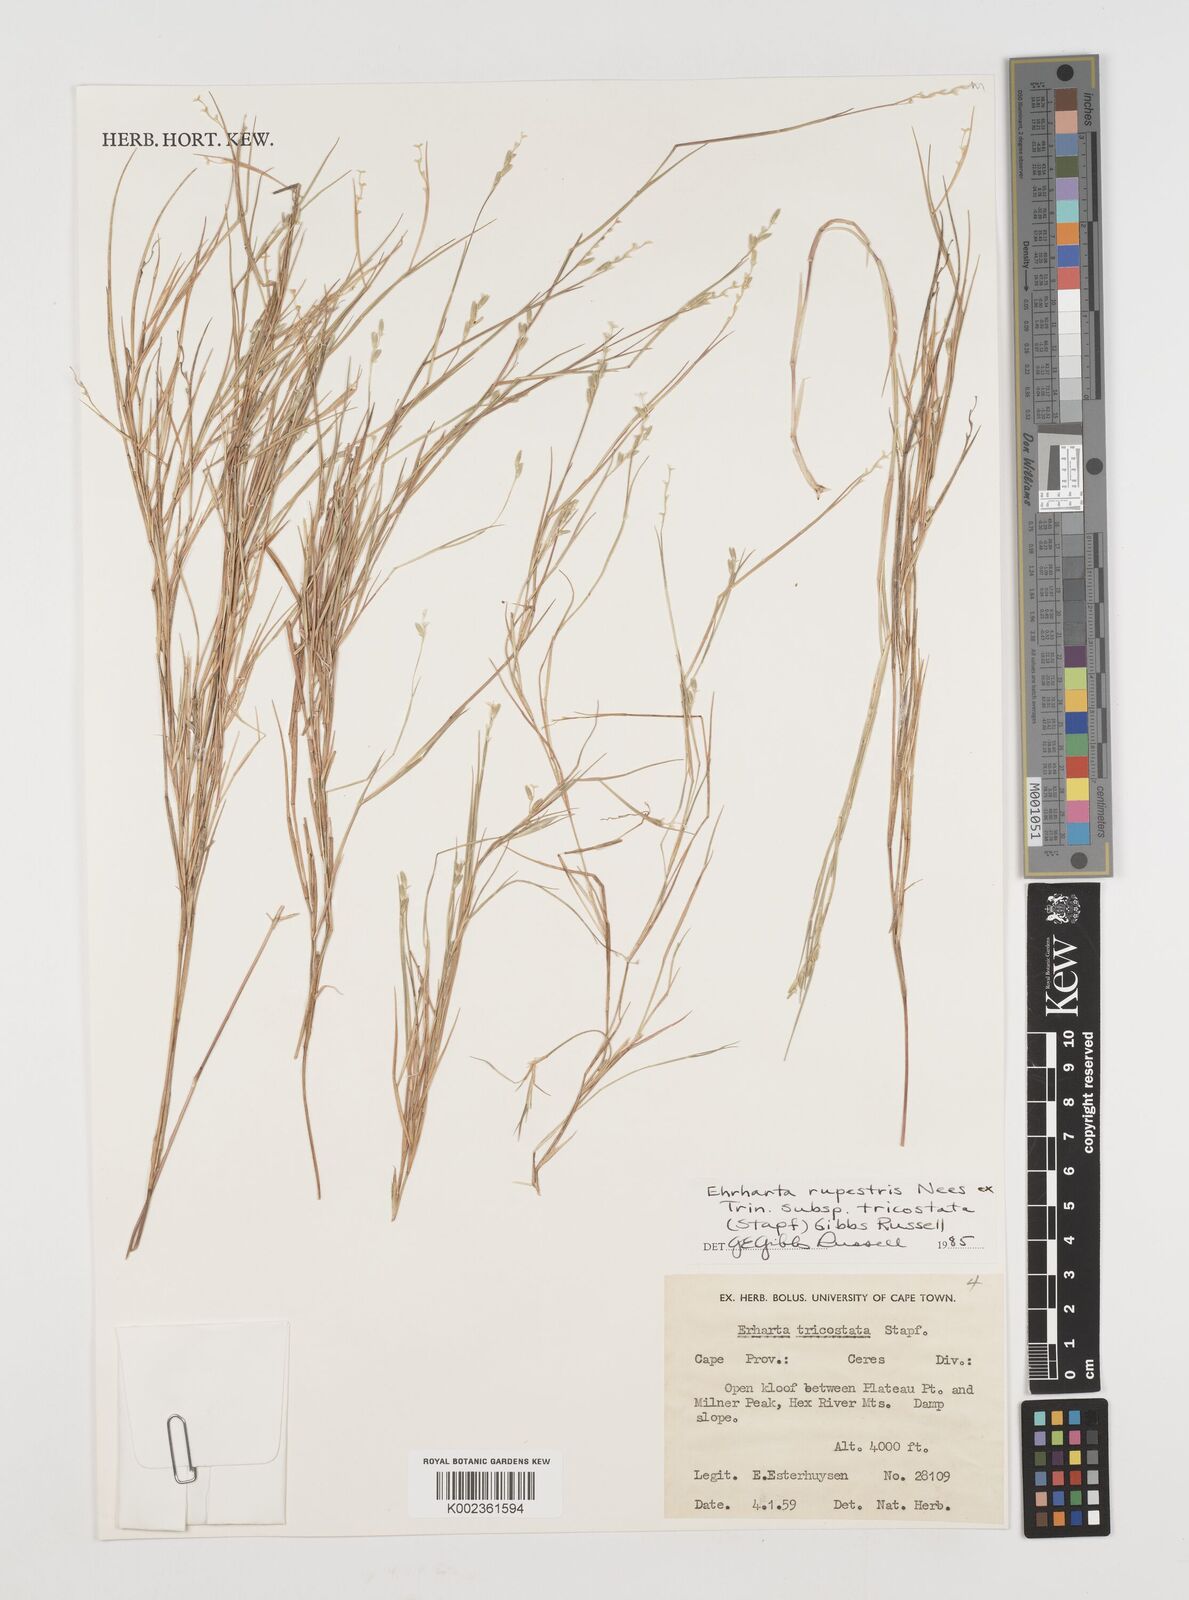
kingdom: Plantae
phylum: Tracheophyta
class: Liliopsida
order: Poales
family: Poaceae
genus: Ehrharta
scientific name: Ehrharta rupestris
